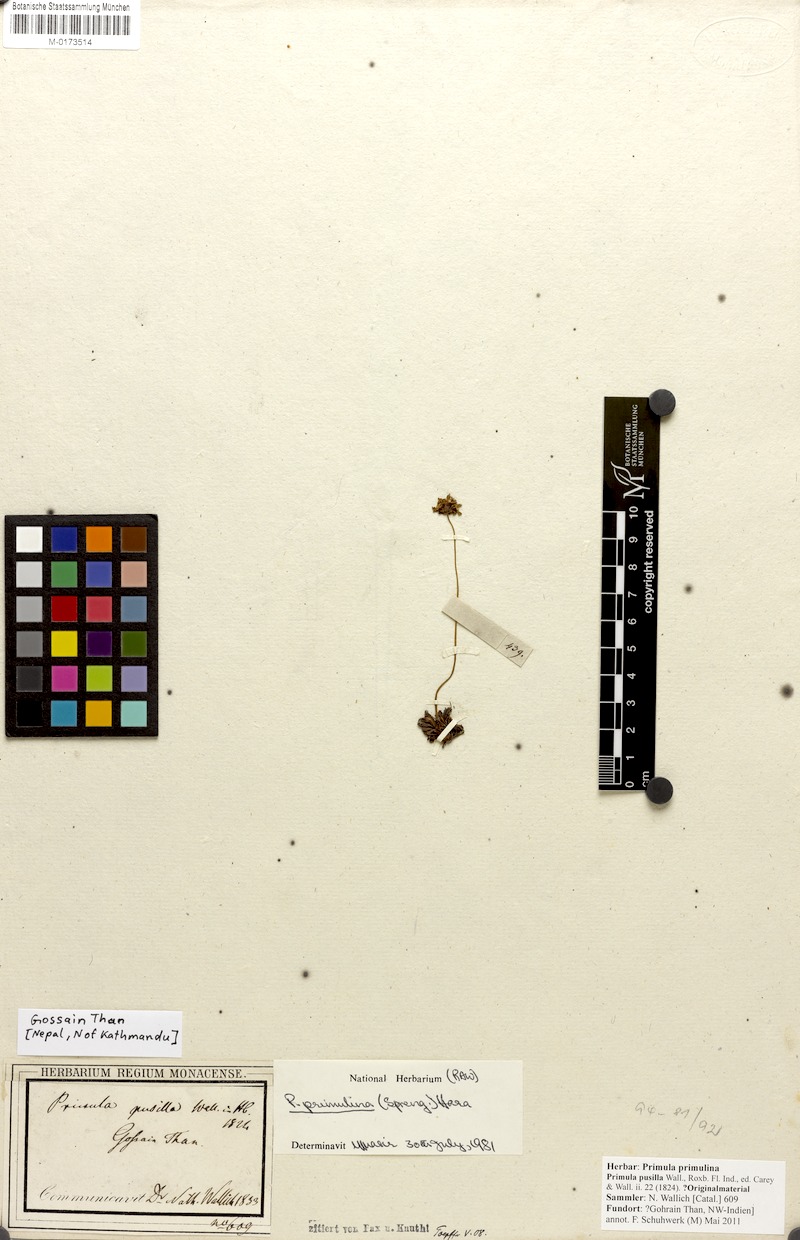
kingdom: Plantae
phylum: Tracheophyta
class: Magnoliopsida
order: Ericales
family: Primulaceae
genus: Primula
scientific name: Primula primulina
